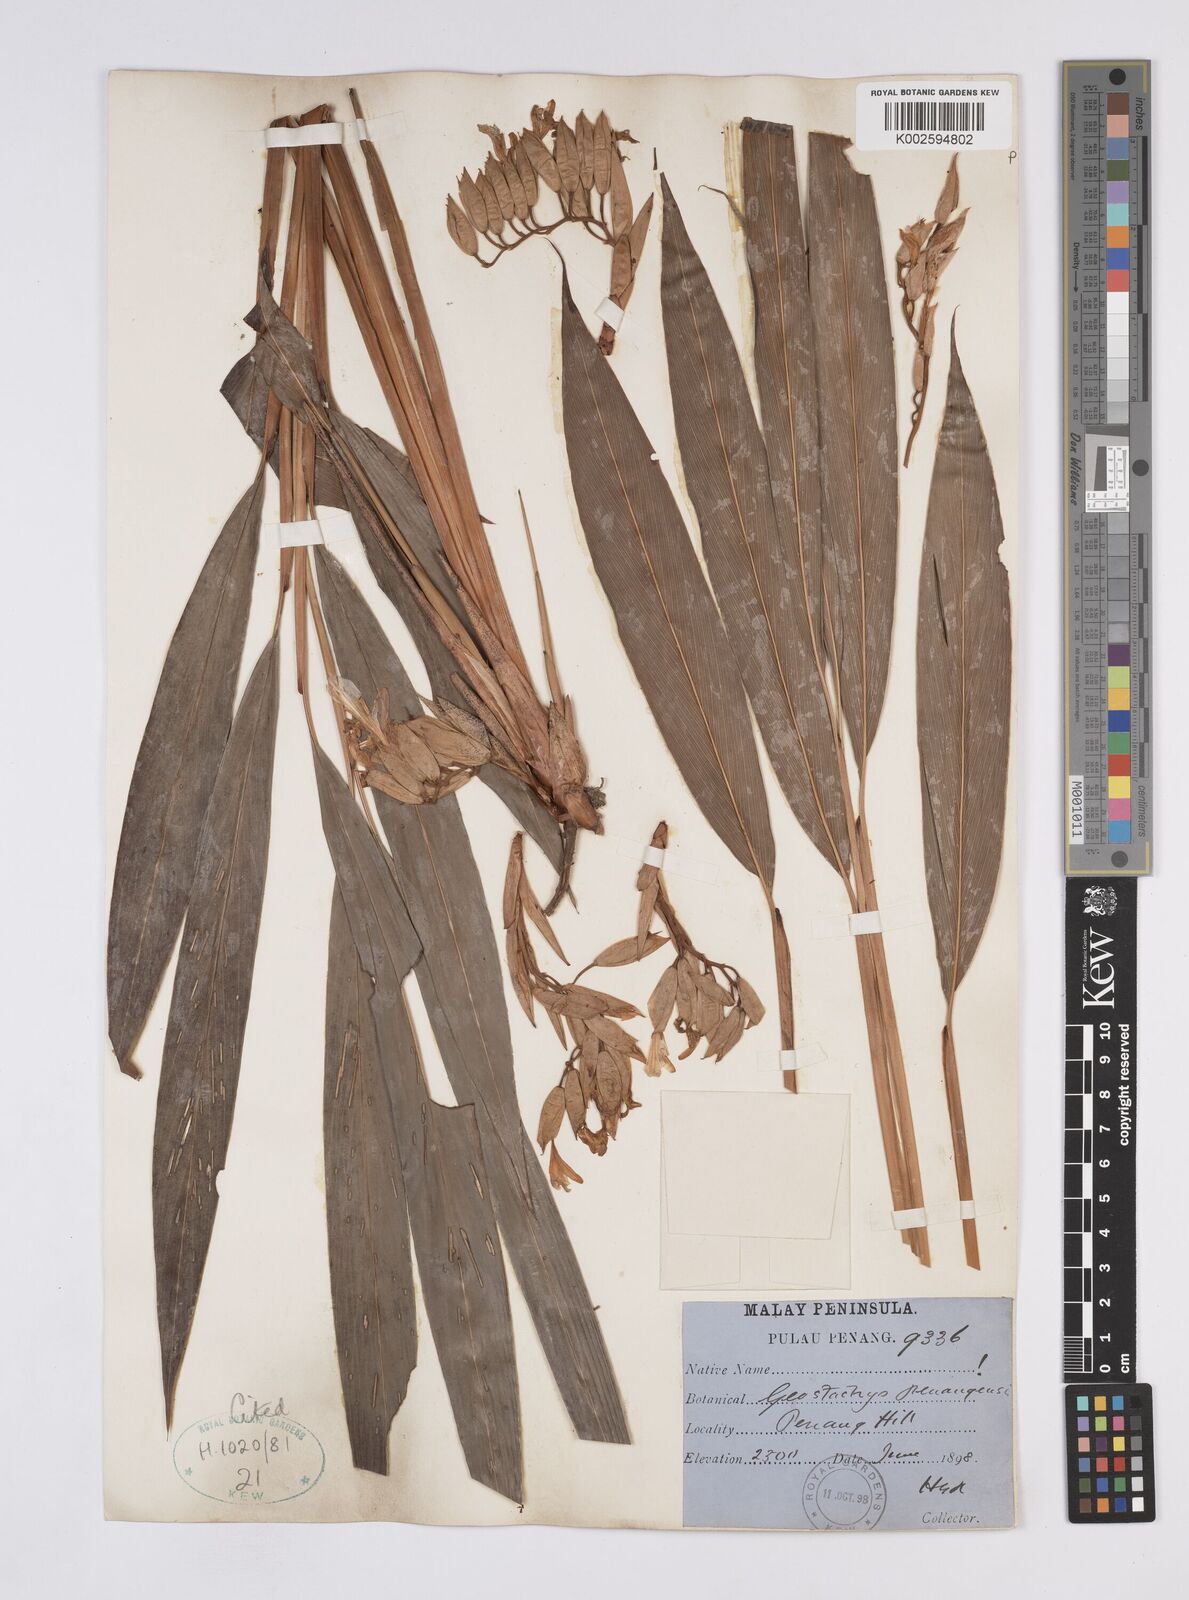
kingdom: Plantae
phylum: Tracheophyta
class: Liliopsida
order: Zingiberales
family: Zingiberaceae
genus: Geostachys
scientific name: Geostachys penangensis
